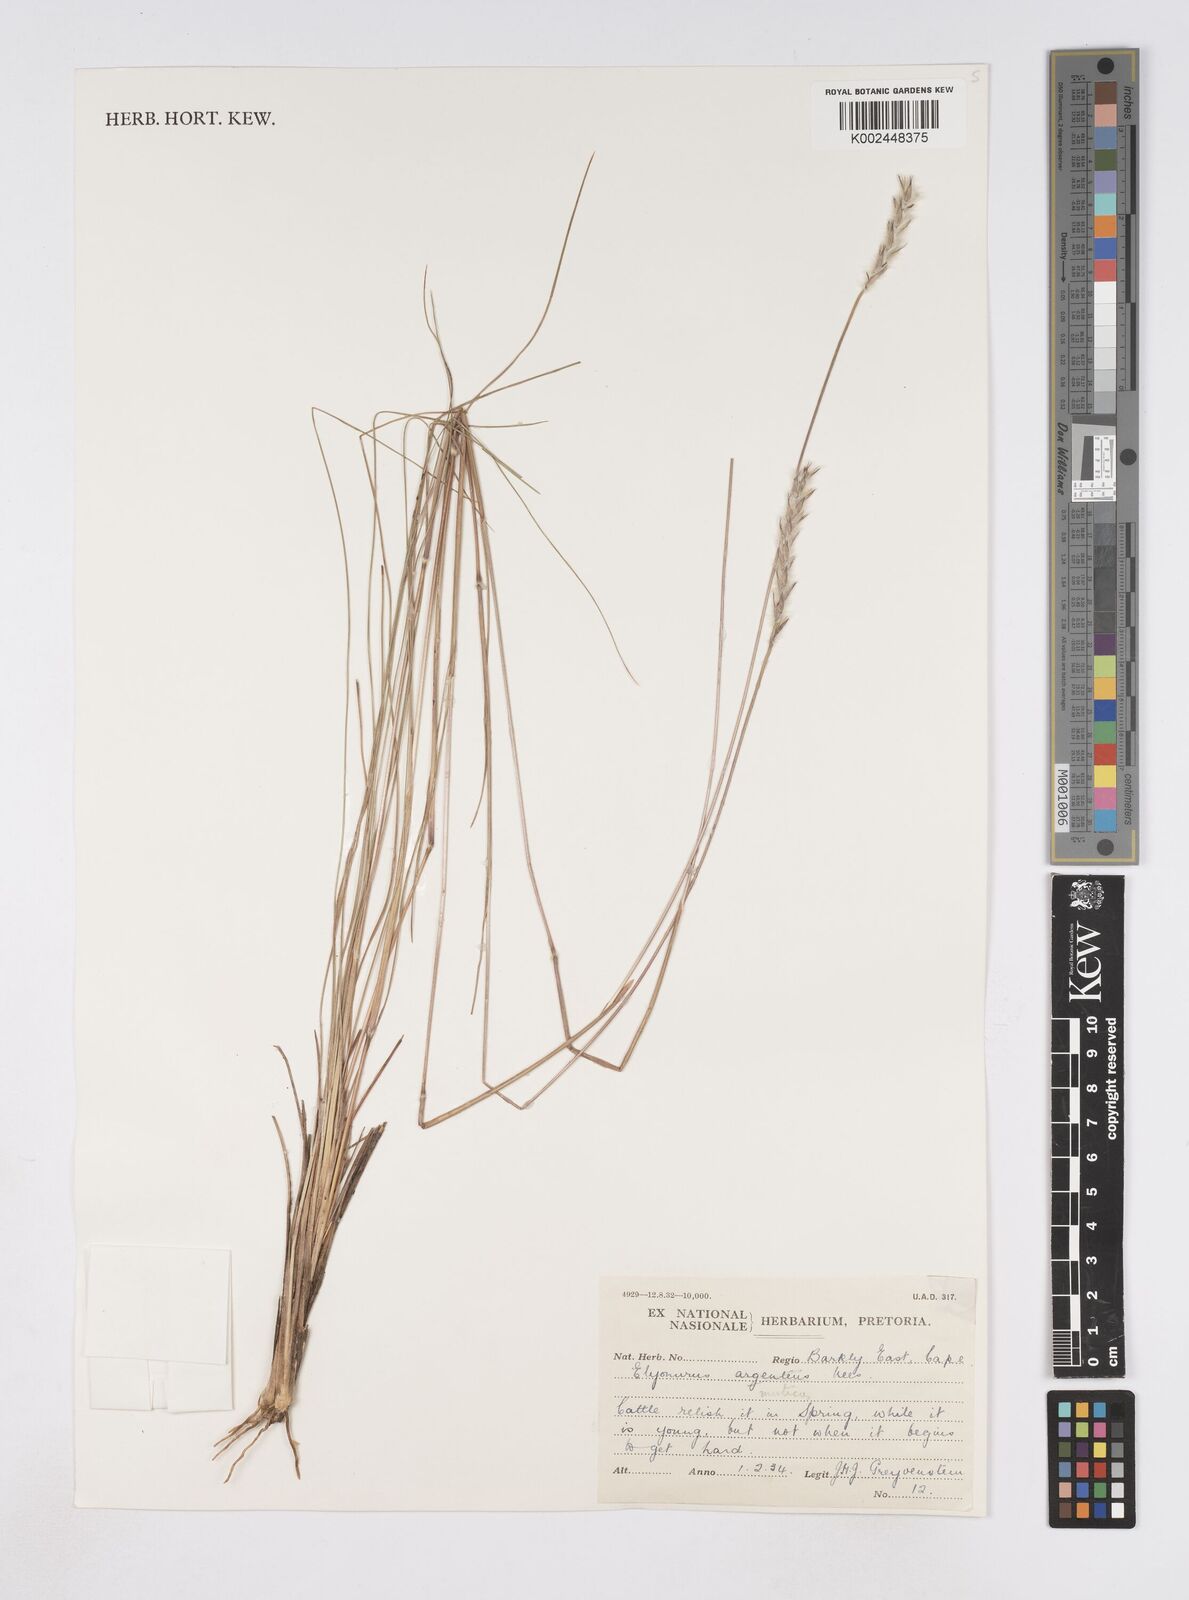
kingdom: Plantae
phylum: Tracheophyta
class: Liliopsida
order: Poales
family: Poaceae
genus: Elionurus
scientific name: Elionurus muticus
